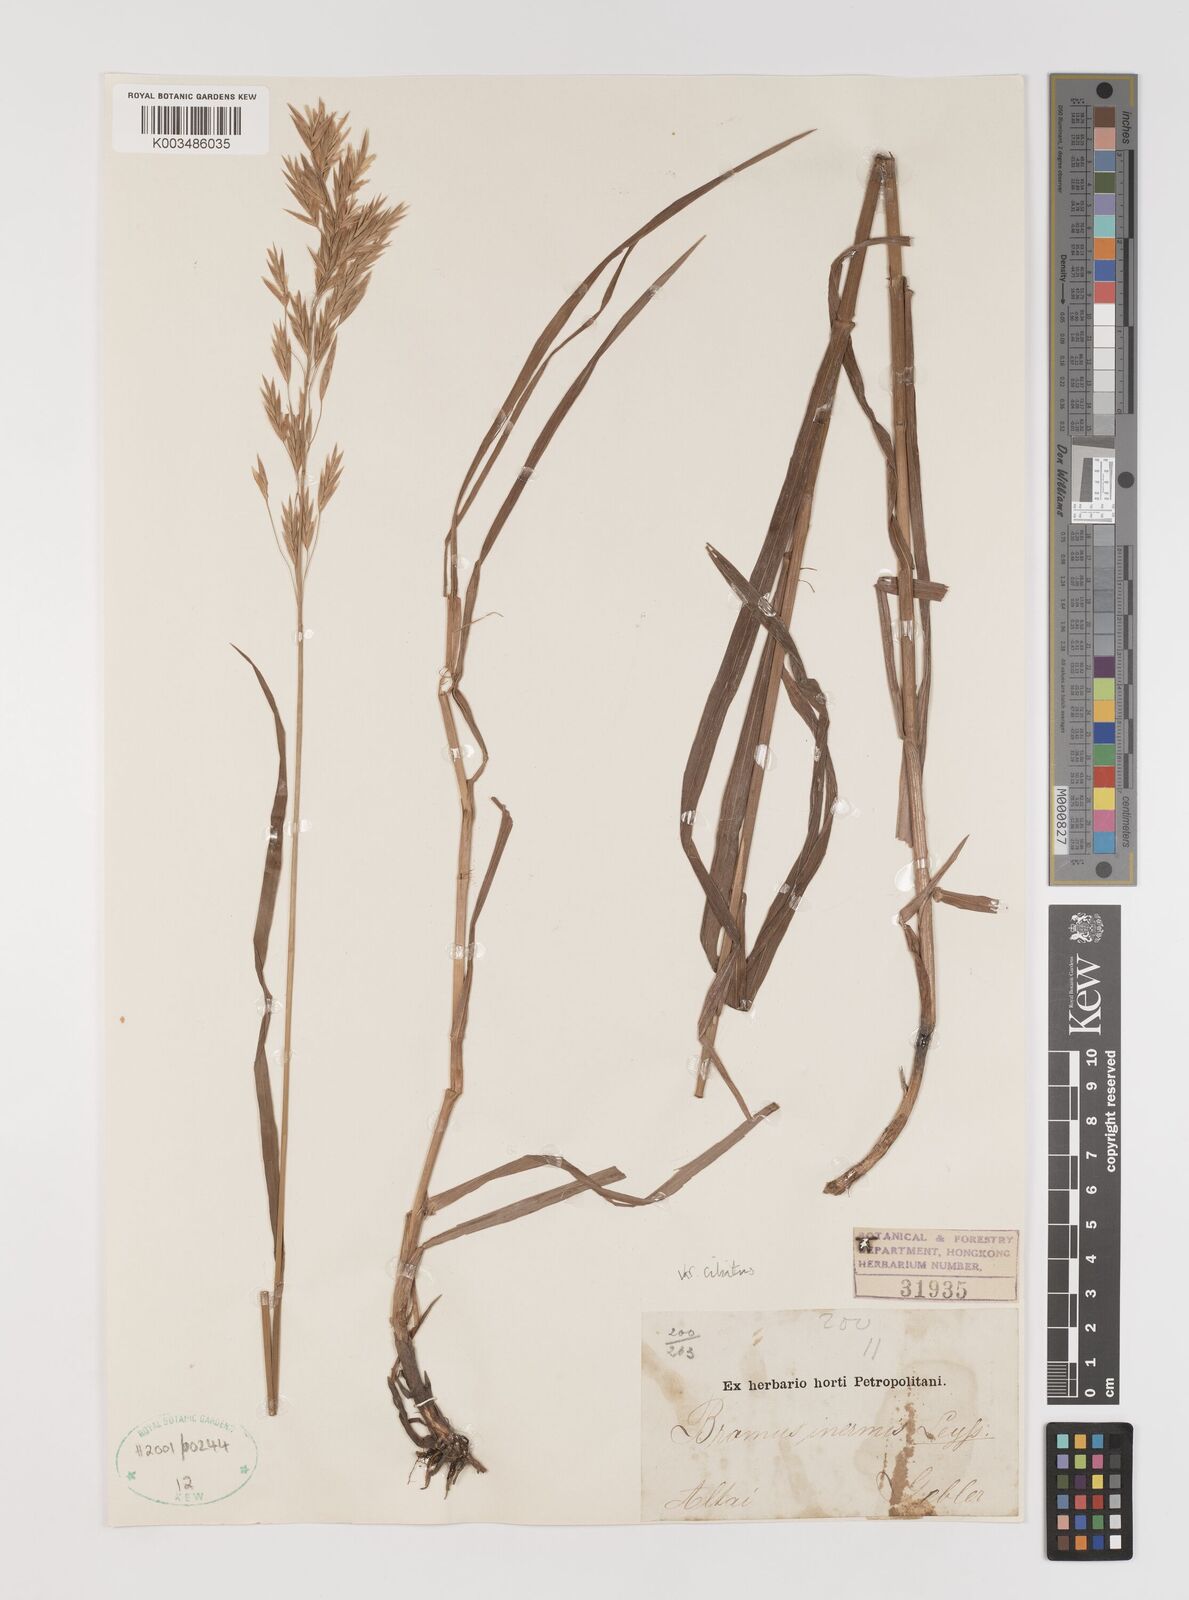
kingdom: Plantae
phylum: Tracheophyta
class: Liliopsida
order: Poales
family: Poaceae
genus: Bromus
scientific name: Bromus inermis
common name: Smooth brome
